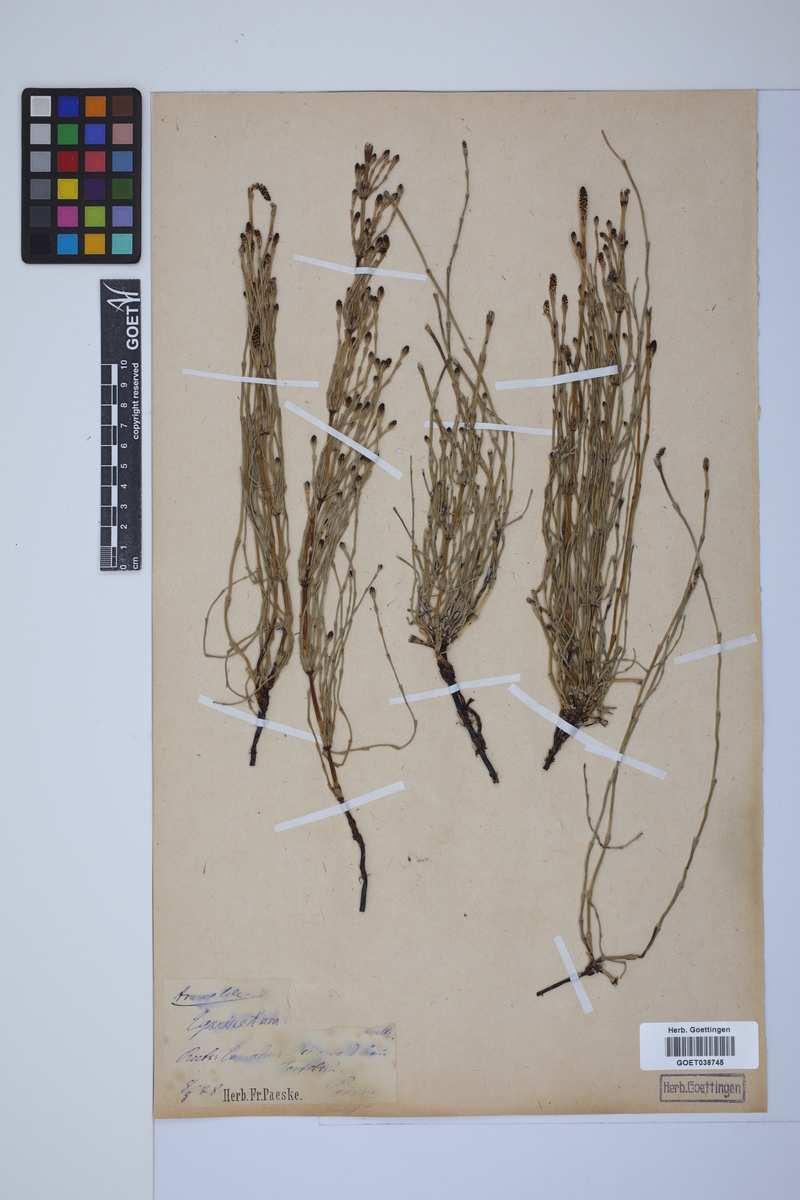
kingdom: Plantae
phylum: Tracheophyta
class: Polypodiopsida
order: Equisetales
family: Equisetaceae
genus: Equisetum
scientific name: Equisetum palustre
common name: Marsh horsetail
